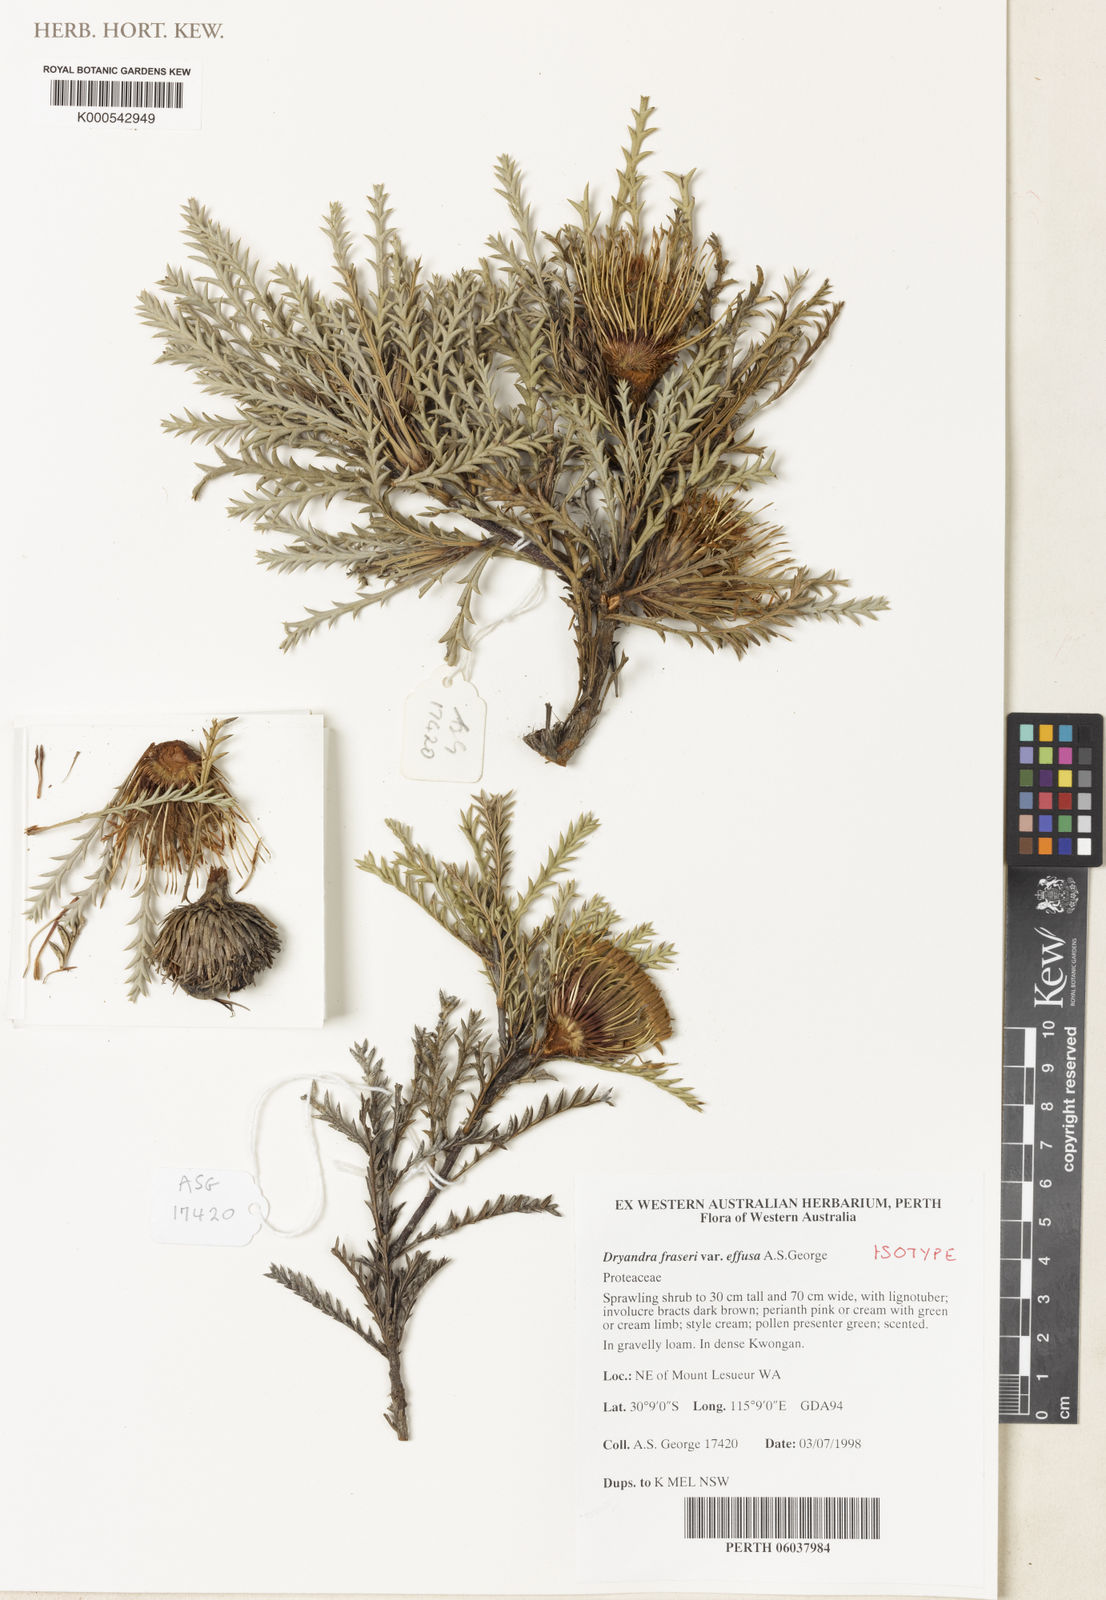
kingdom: Plantae
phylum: Tracheophyta
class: Magnoliopsida
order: Proteales
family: Proteaceae
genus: Banksia
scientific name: Banksia fraseri
